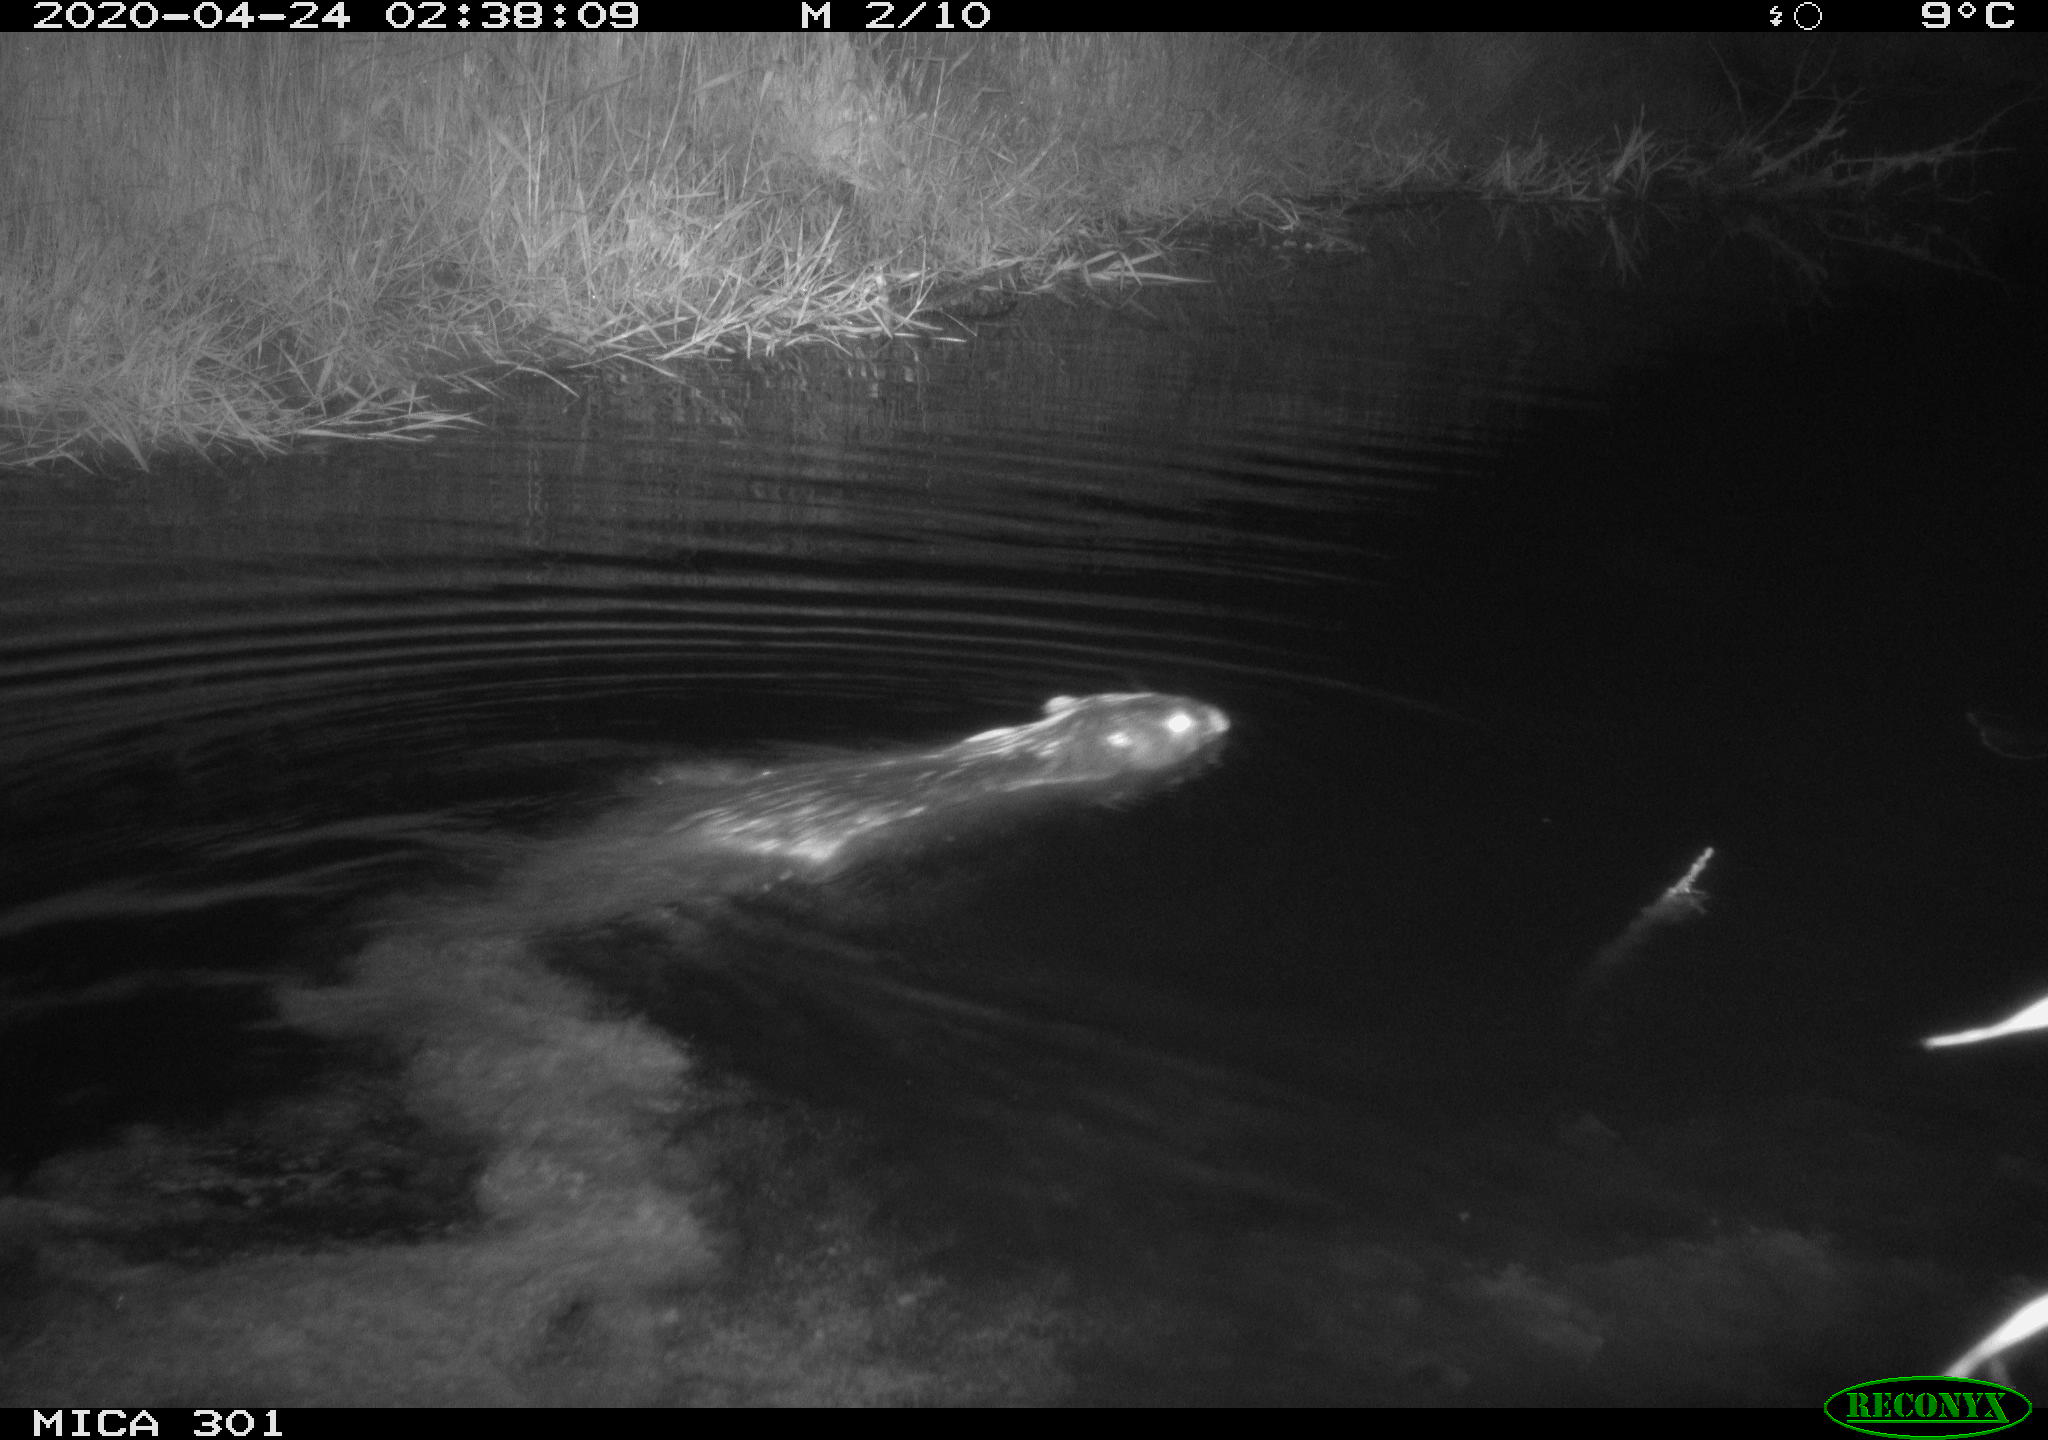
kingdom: Animalia
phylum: Chordata
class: Mammalia
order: Rodentia
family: Castoridae
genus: Castor
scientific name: Castor fiber
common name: Eurasian beaver
